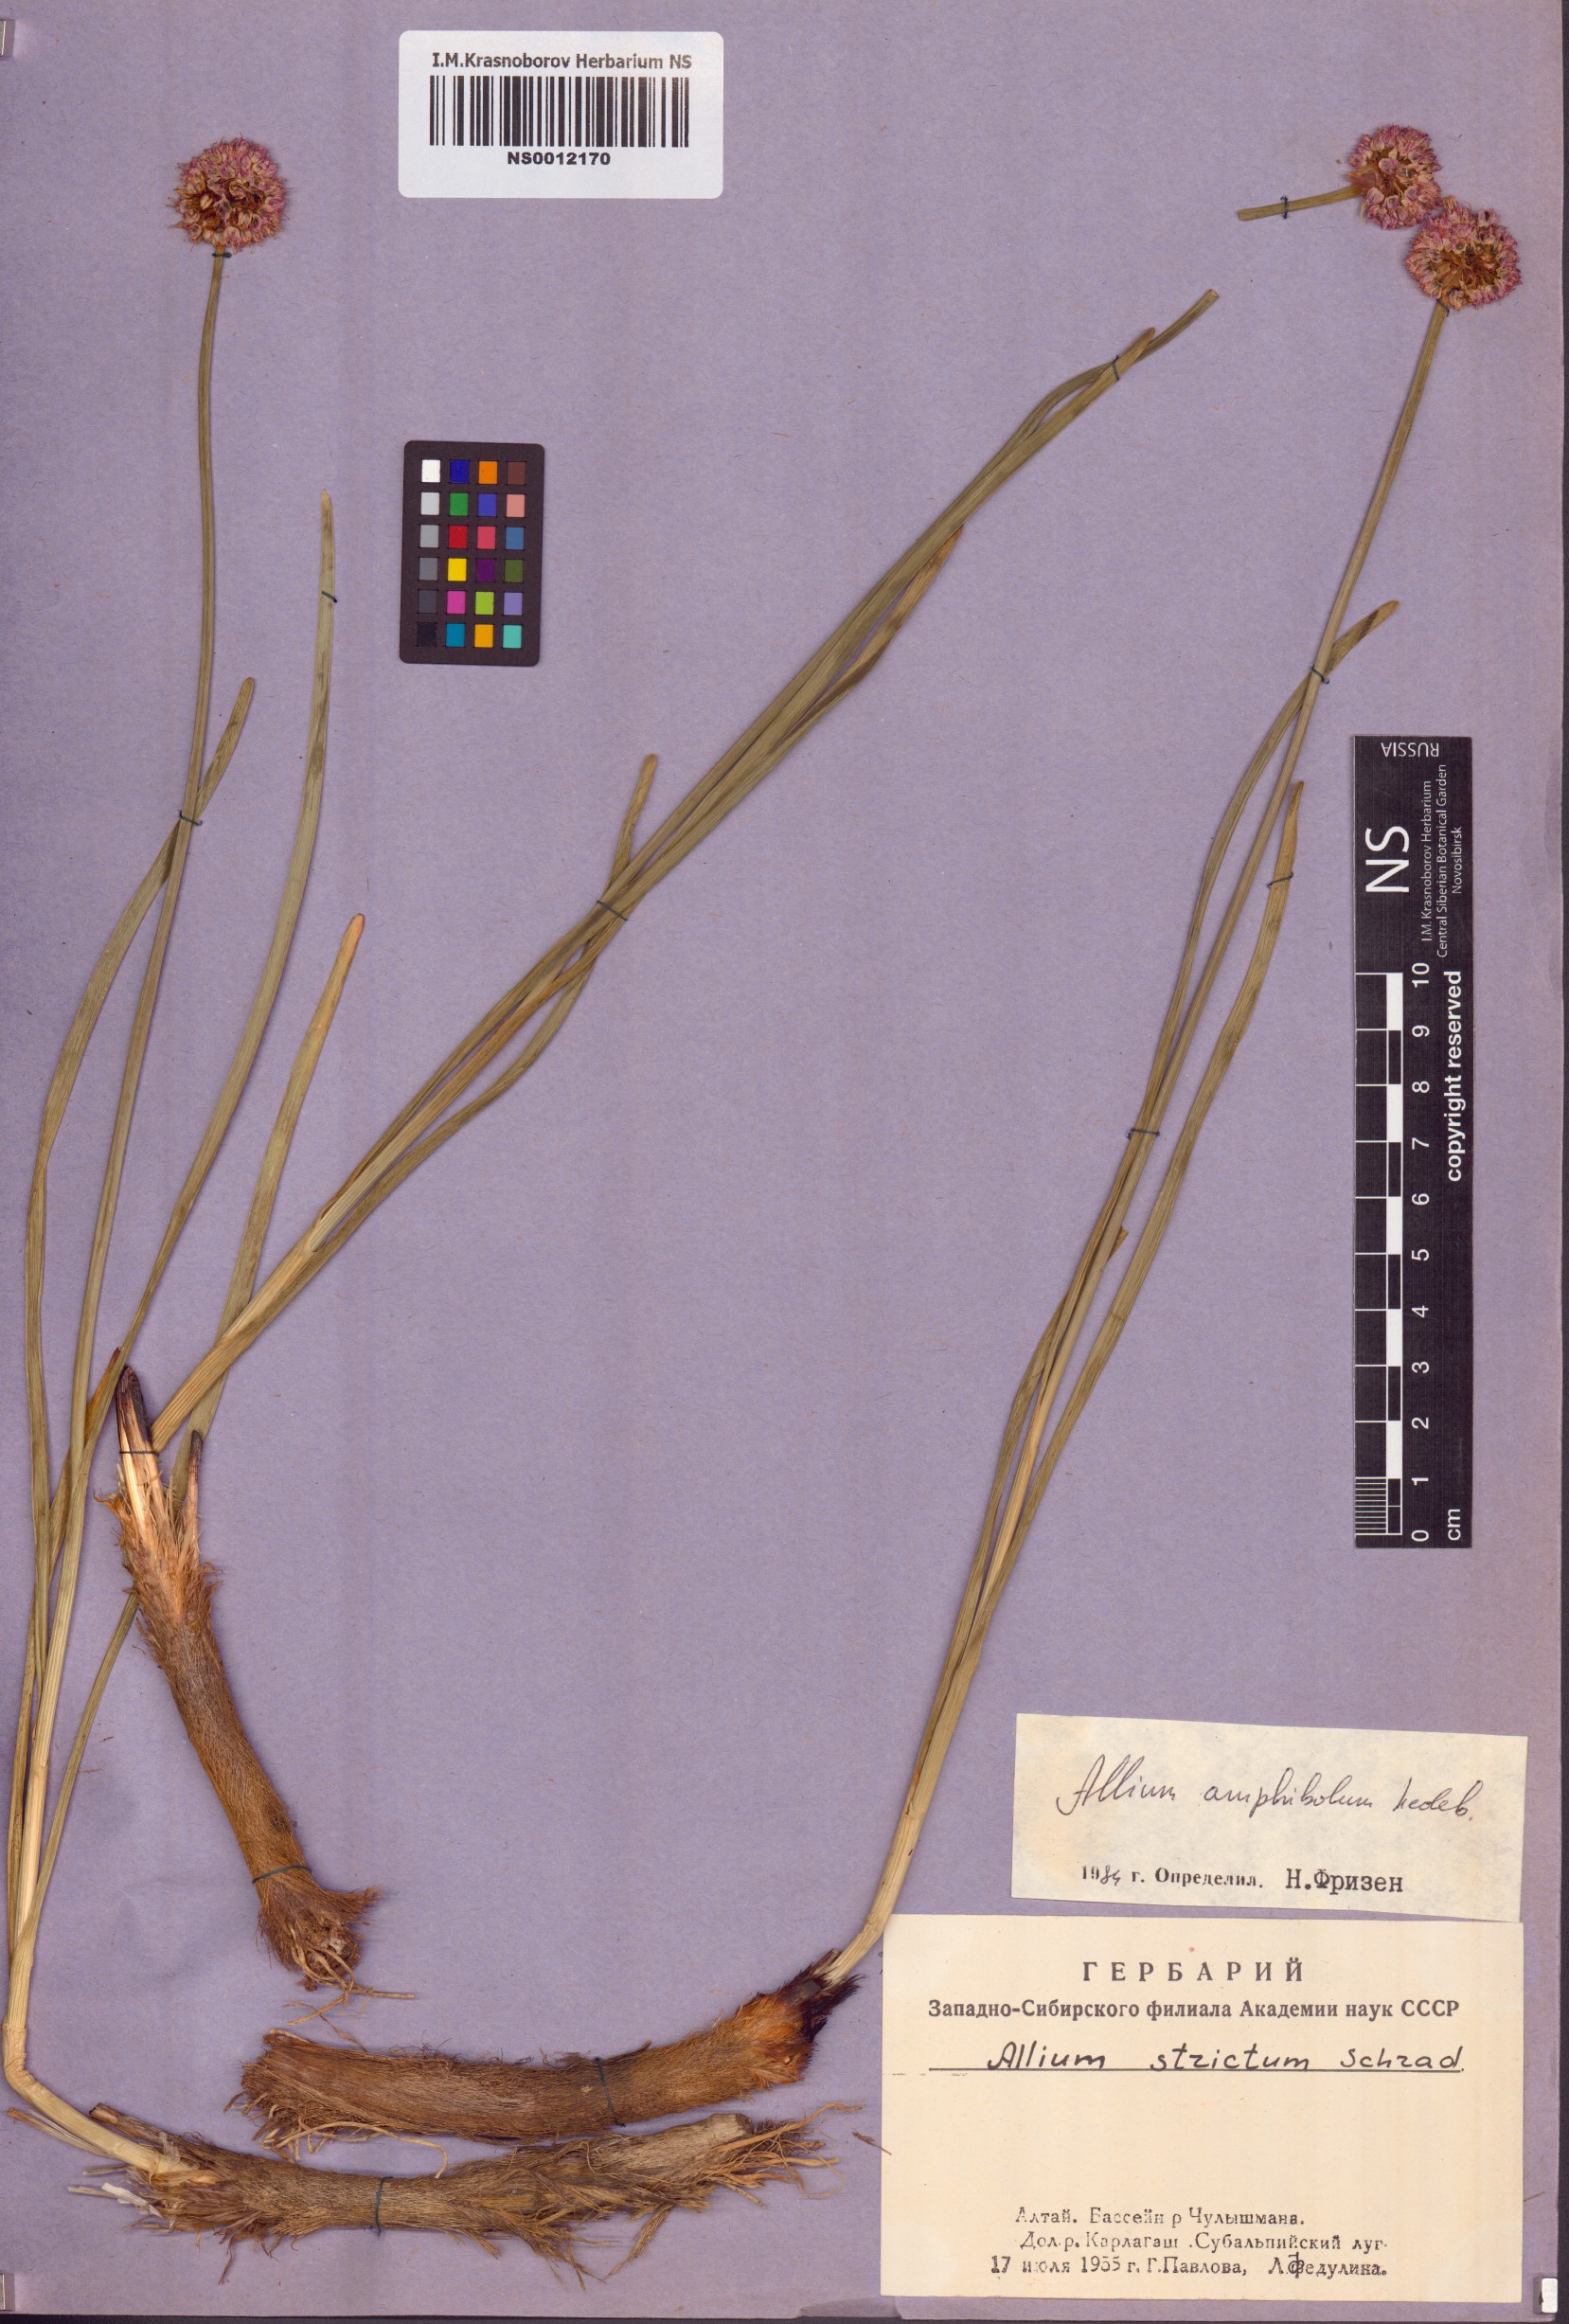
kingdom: Plantae
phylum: Tracheophyta
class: Liliopsida
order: Asparagales
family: Amaryllidaceae
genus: Allium
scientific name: Allium amphibolum
